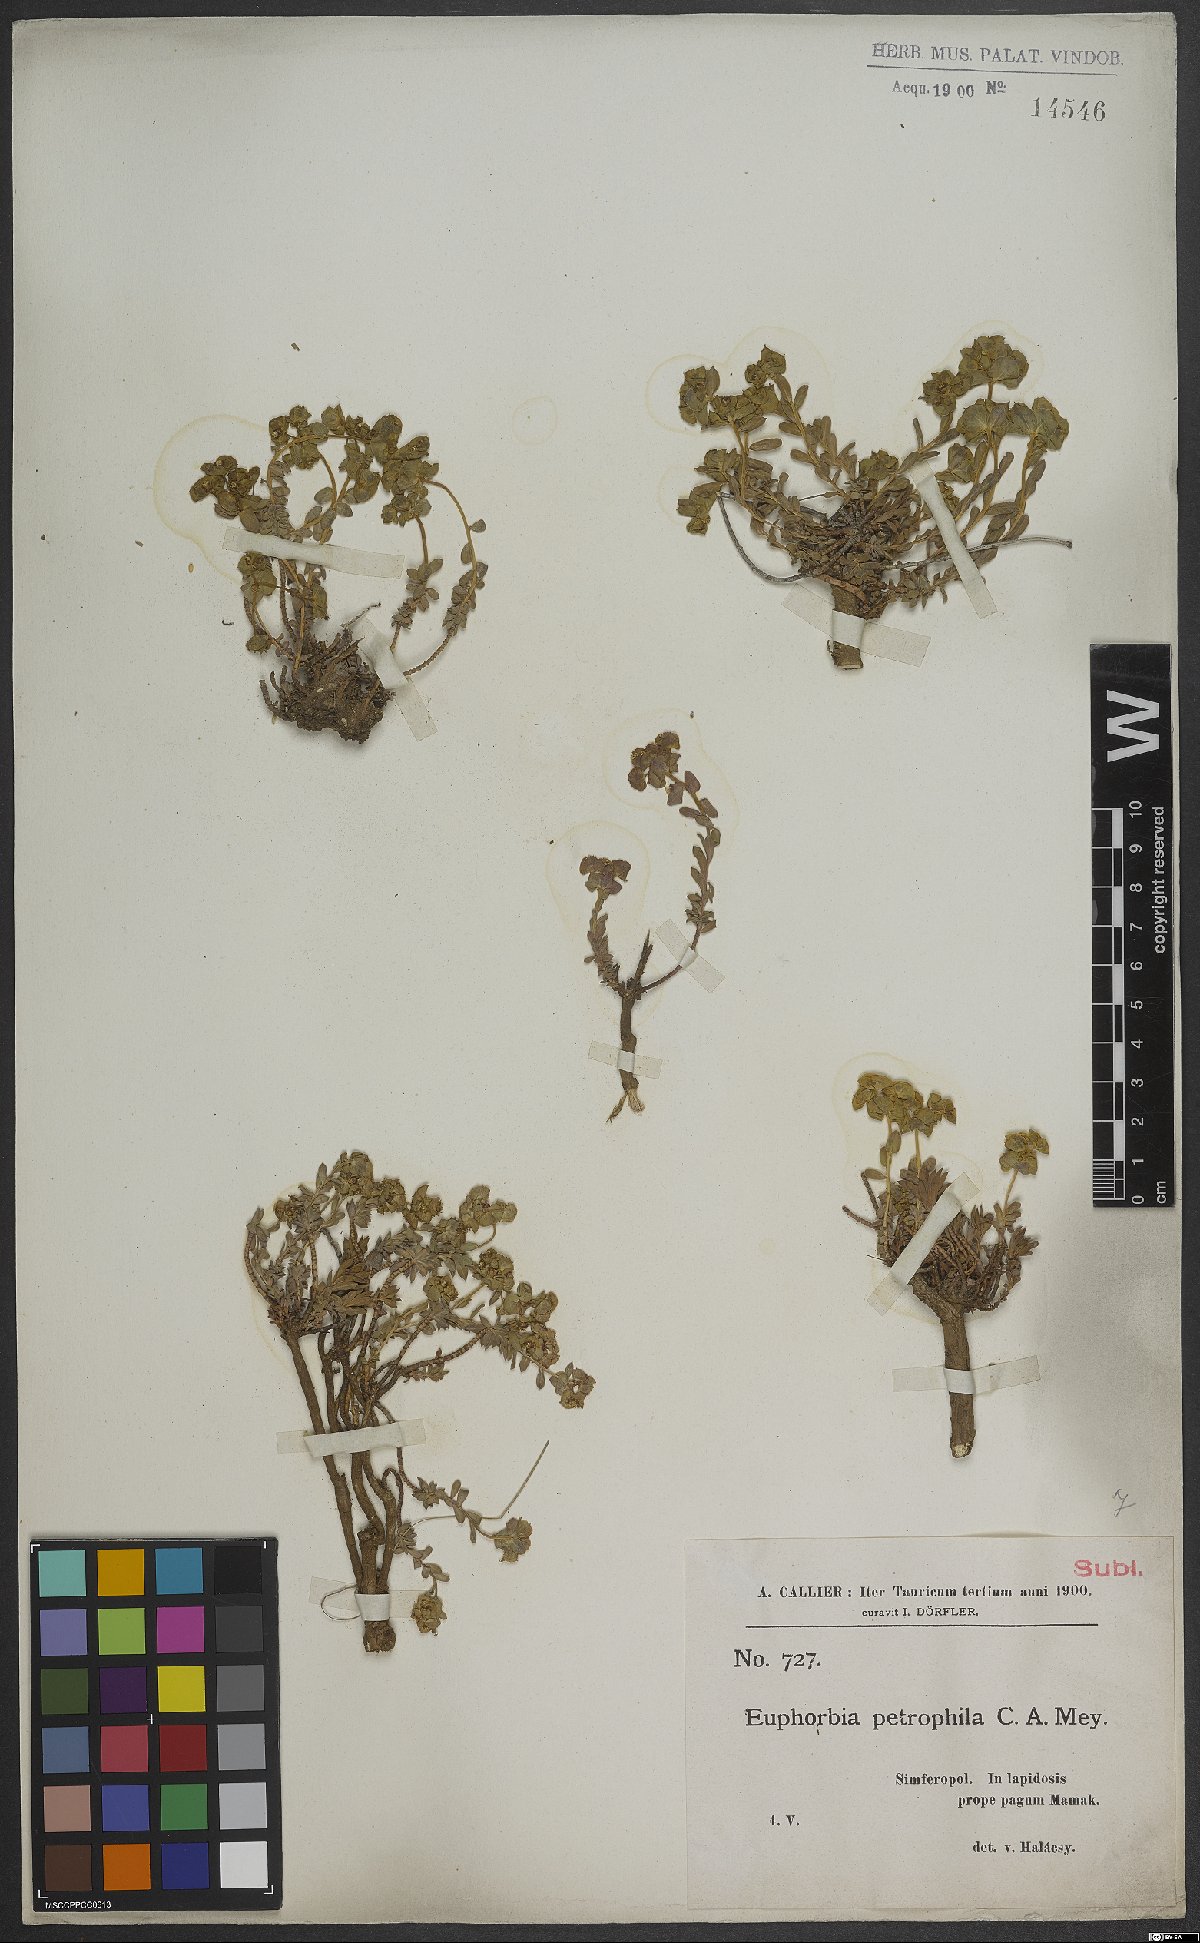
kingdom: Plantae
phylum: Tracheophyta
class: Magnoliopsida
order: Malpighiales
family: Euphorbiaceae
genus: Euphorbia
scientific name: Euphorbia petrophila
